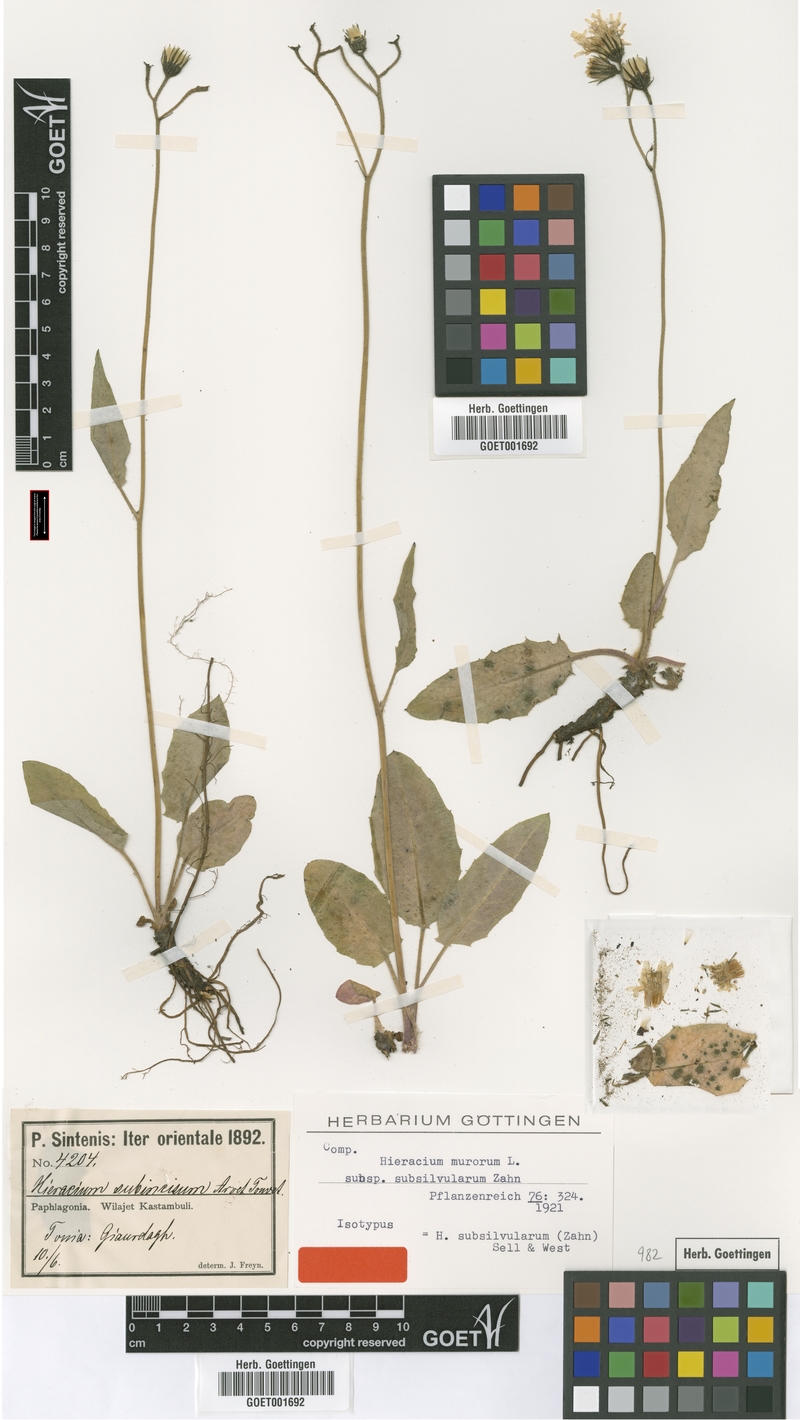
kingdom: Plantae
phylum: Tracheophyta
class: Magnoliopsida
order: Asterales
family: Asteraceae
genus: Hieracium
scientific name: Hieracium murorum
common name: Wall hawkweed
